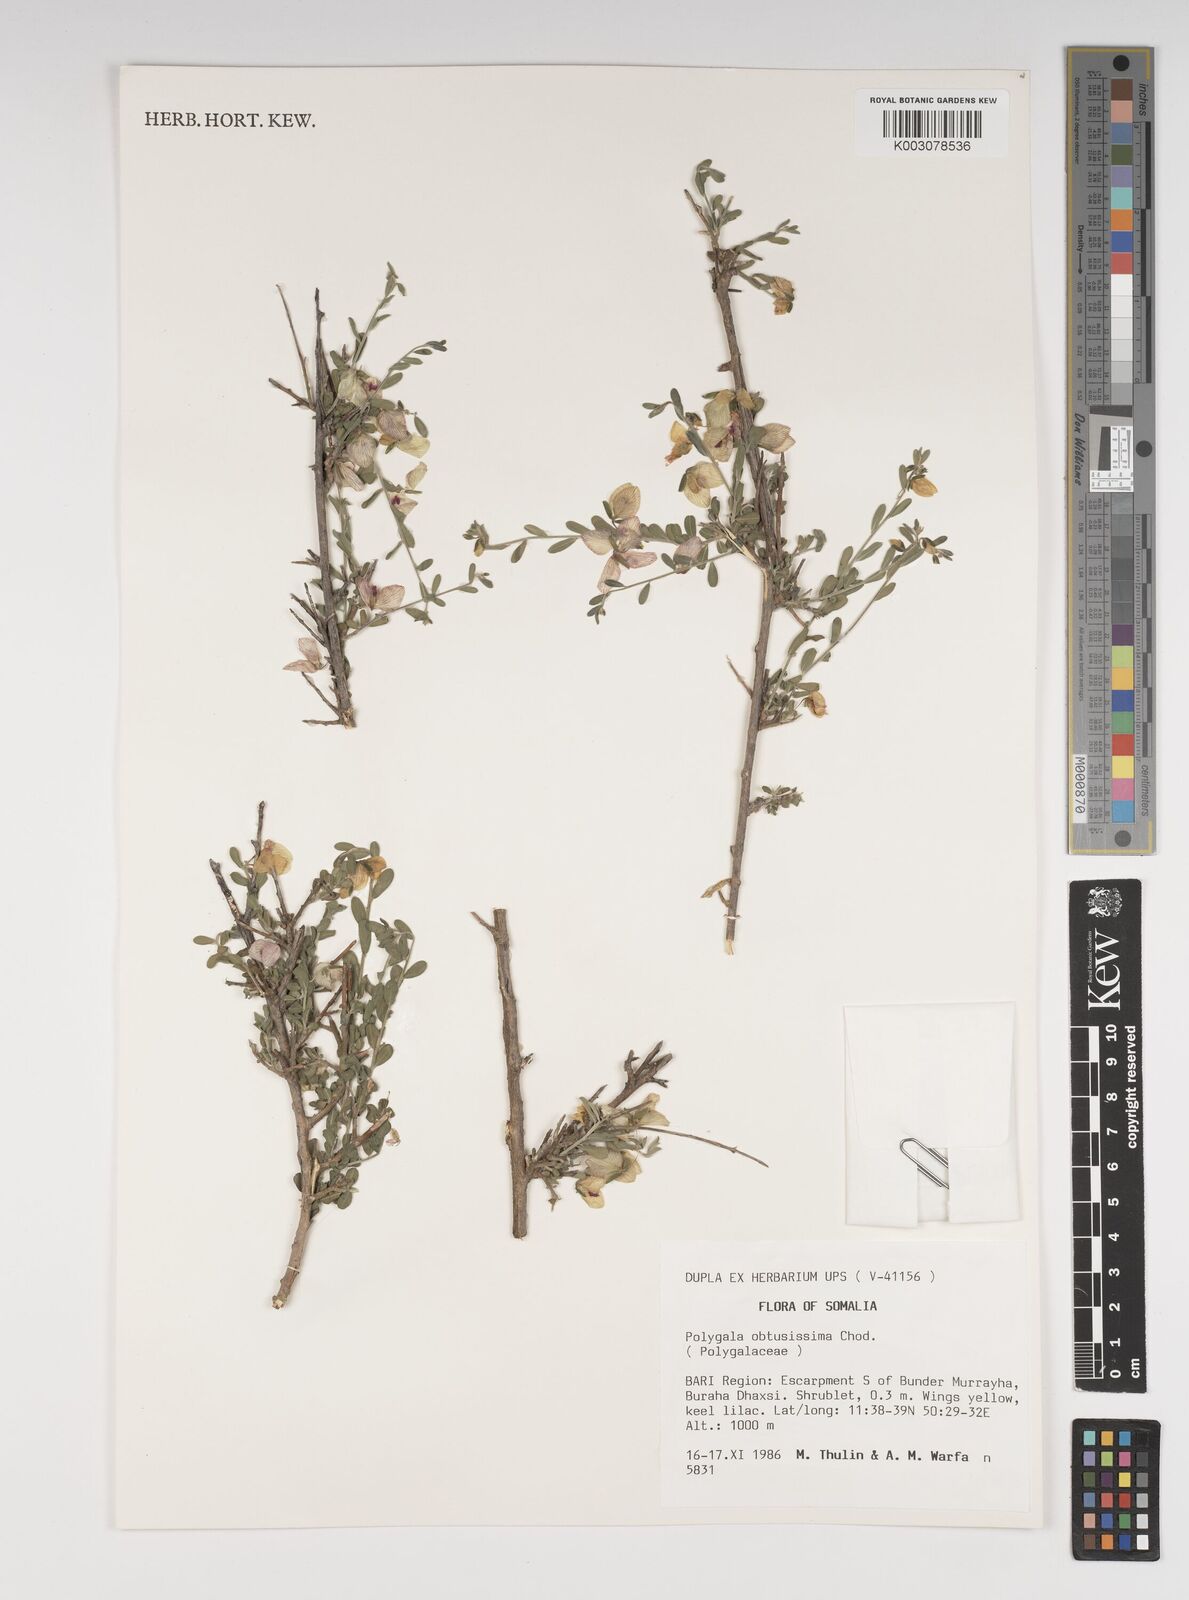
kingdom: Plantae
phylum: Tracheophyta
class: Magnoliopsida
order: Fabales
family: Polygalaceae
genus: Polygala
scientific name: Polygala senensis
